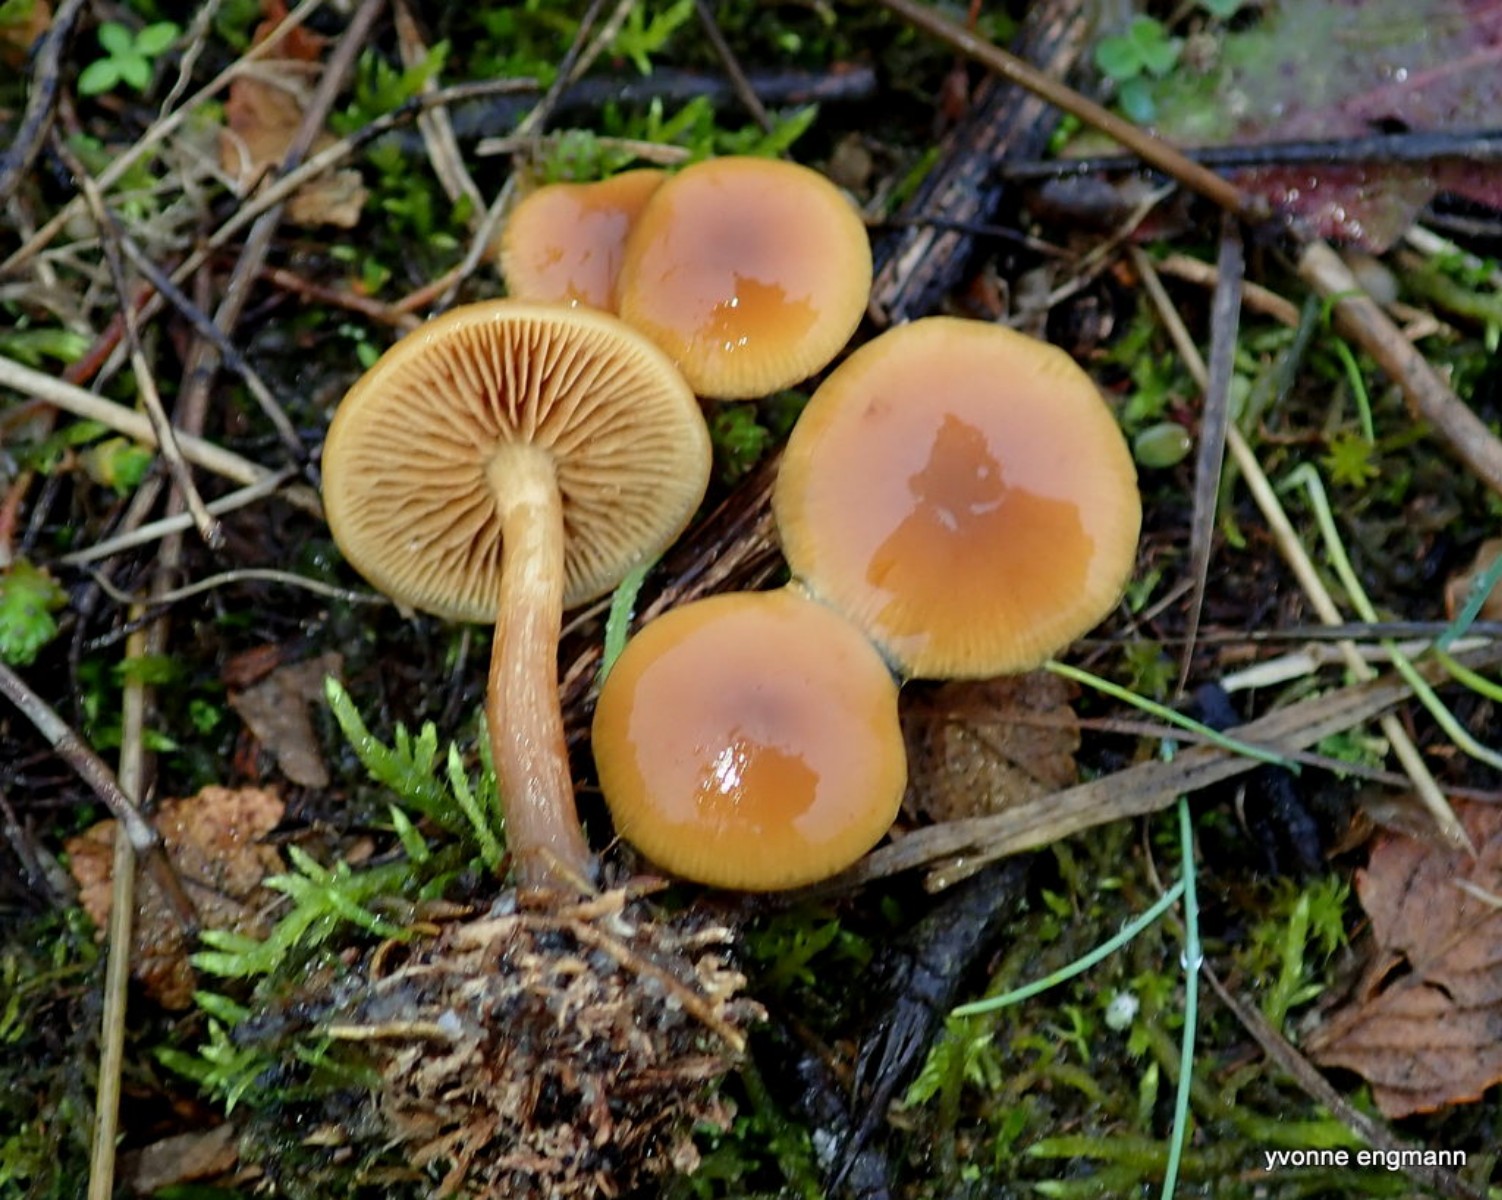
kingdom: Fungi
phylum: Basidiomycota
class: Agaricomycetes
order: Agaricales
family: Hymenogastraceae
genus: Galerina
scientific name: Galerina
